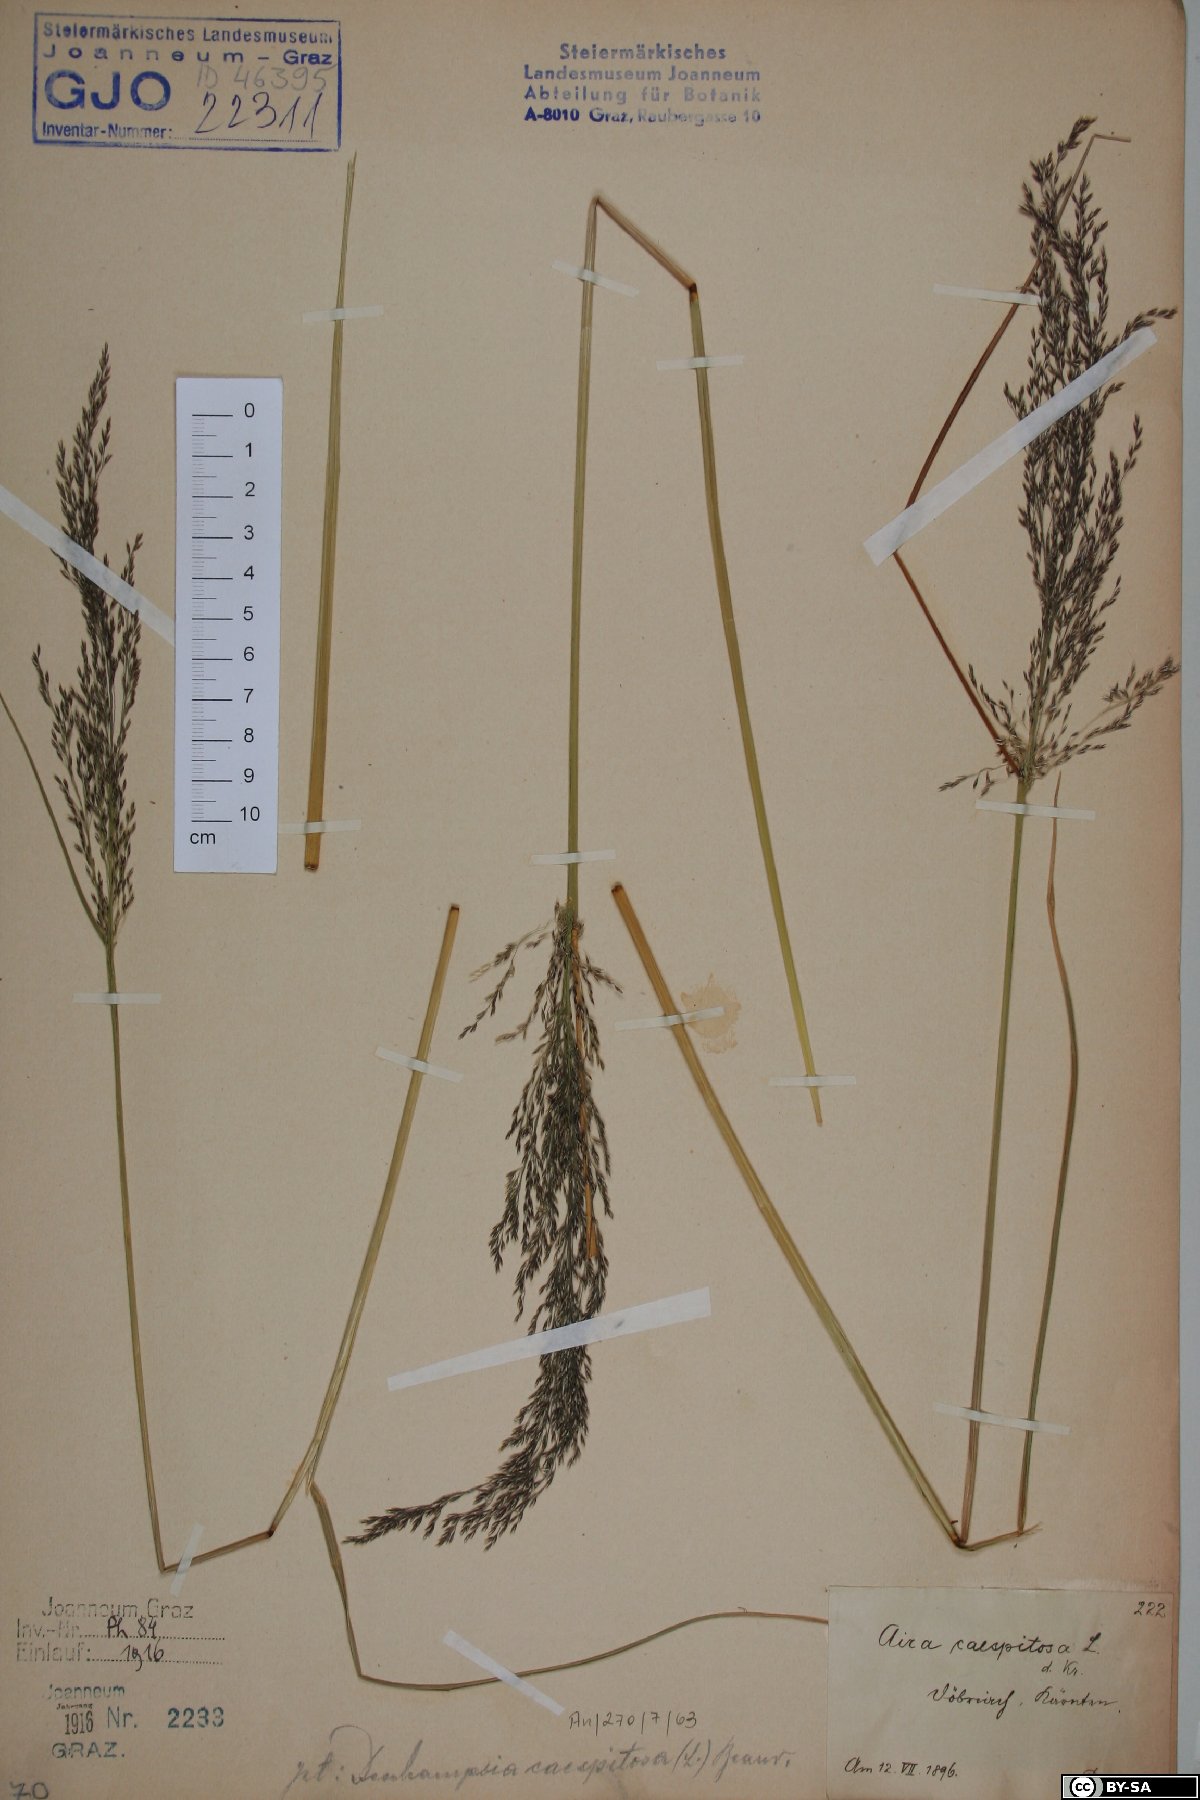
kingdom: Plantae
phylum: Tracheophyta
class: Liliopsida
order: Poales
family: Poaceae
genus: Deschampsia
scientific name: Deschampsia cespitosa
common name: Tufted hair-grass
